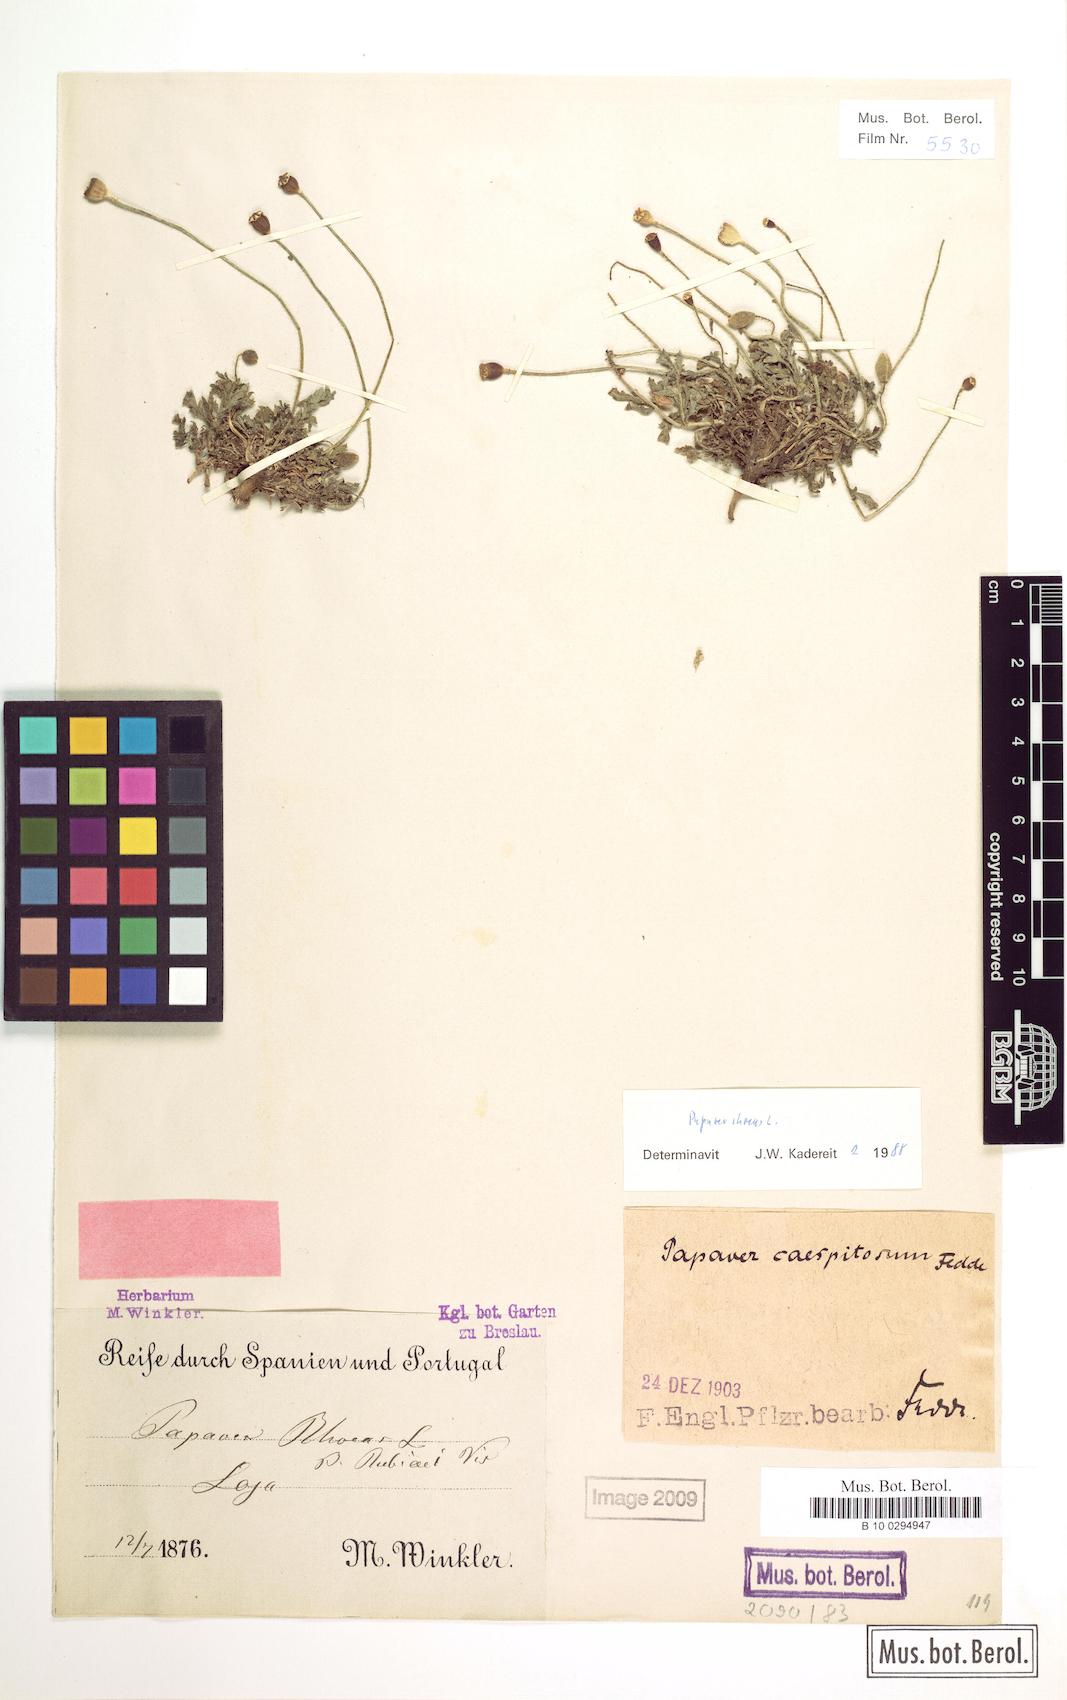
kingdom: Plantae
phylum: Tracheophyta
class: Magnoliopsida
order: Ranunculales
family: Papaveraceae
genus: Papaver
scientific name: Papaver rhoeas
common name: Corn poppy
